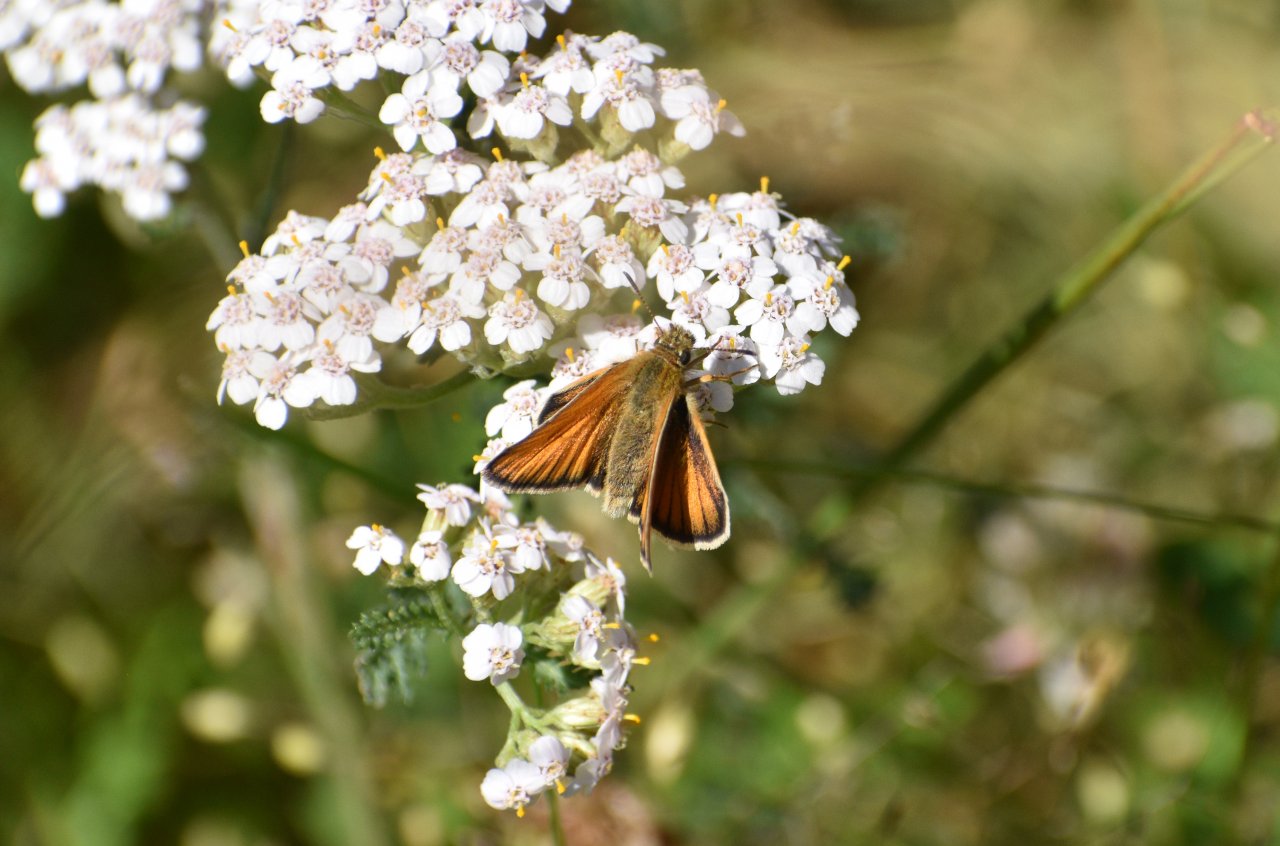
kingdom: Animalia
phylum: Arthropoda
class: Insecta
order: Lepidoptera
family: Hesperiidae
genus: Thymelicus
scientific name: Thymelicus lineola
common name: European Skipper
